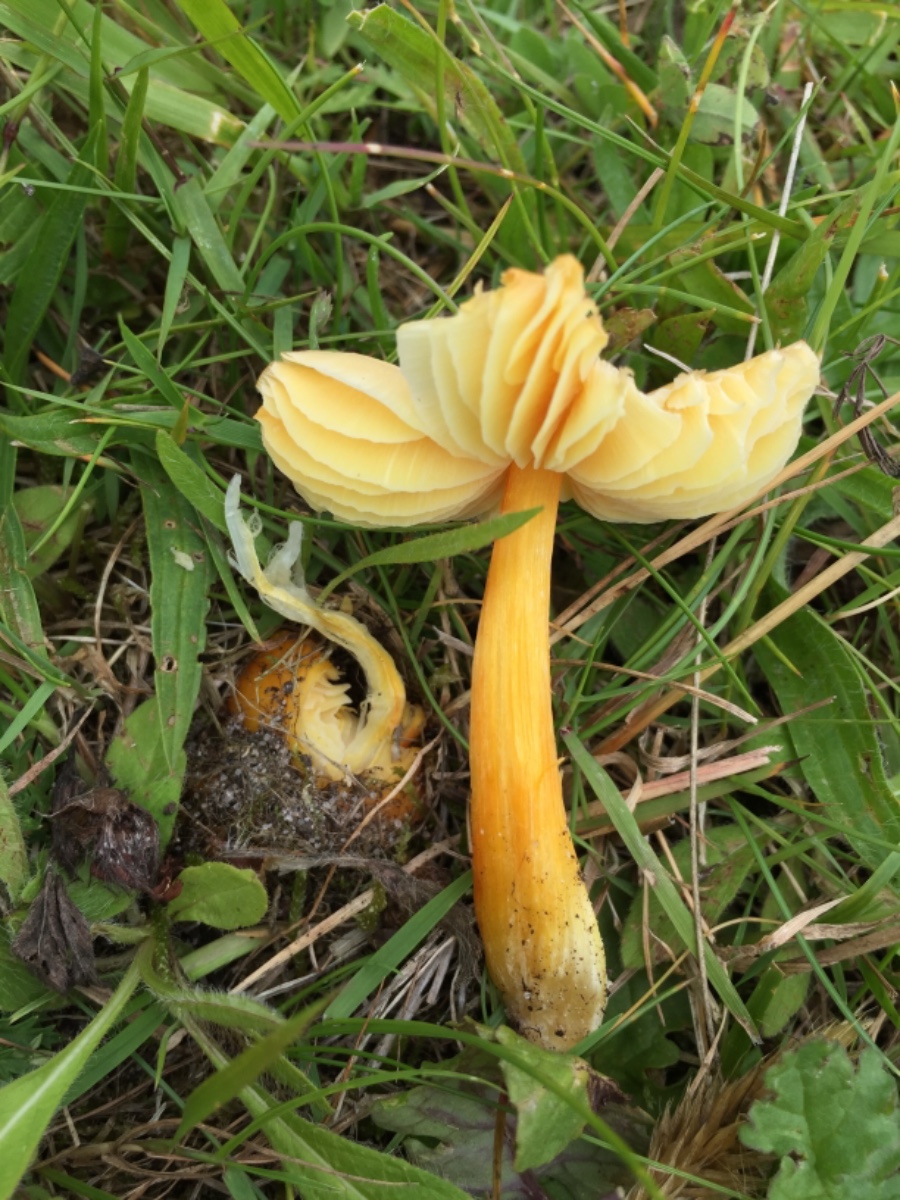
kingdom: Fungi
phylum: Basidiomycota
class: Agaricomycetes
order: Agaricales
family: Hygrophoraceae
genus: Hygrocybe
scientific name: Hygrocybe
